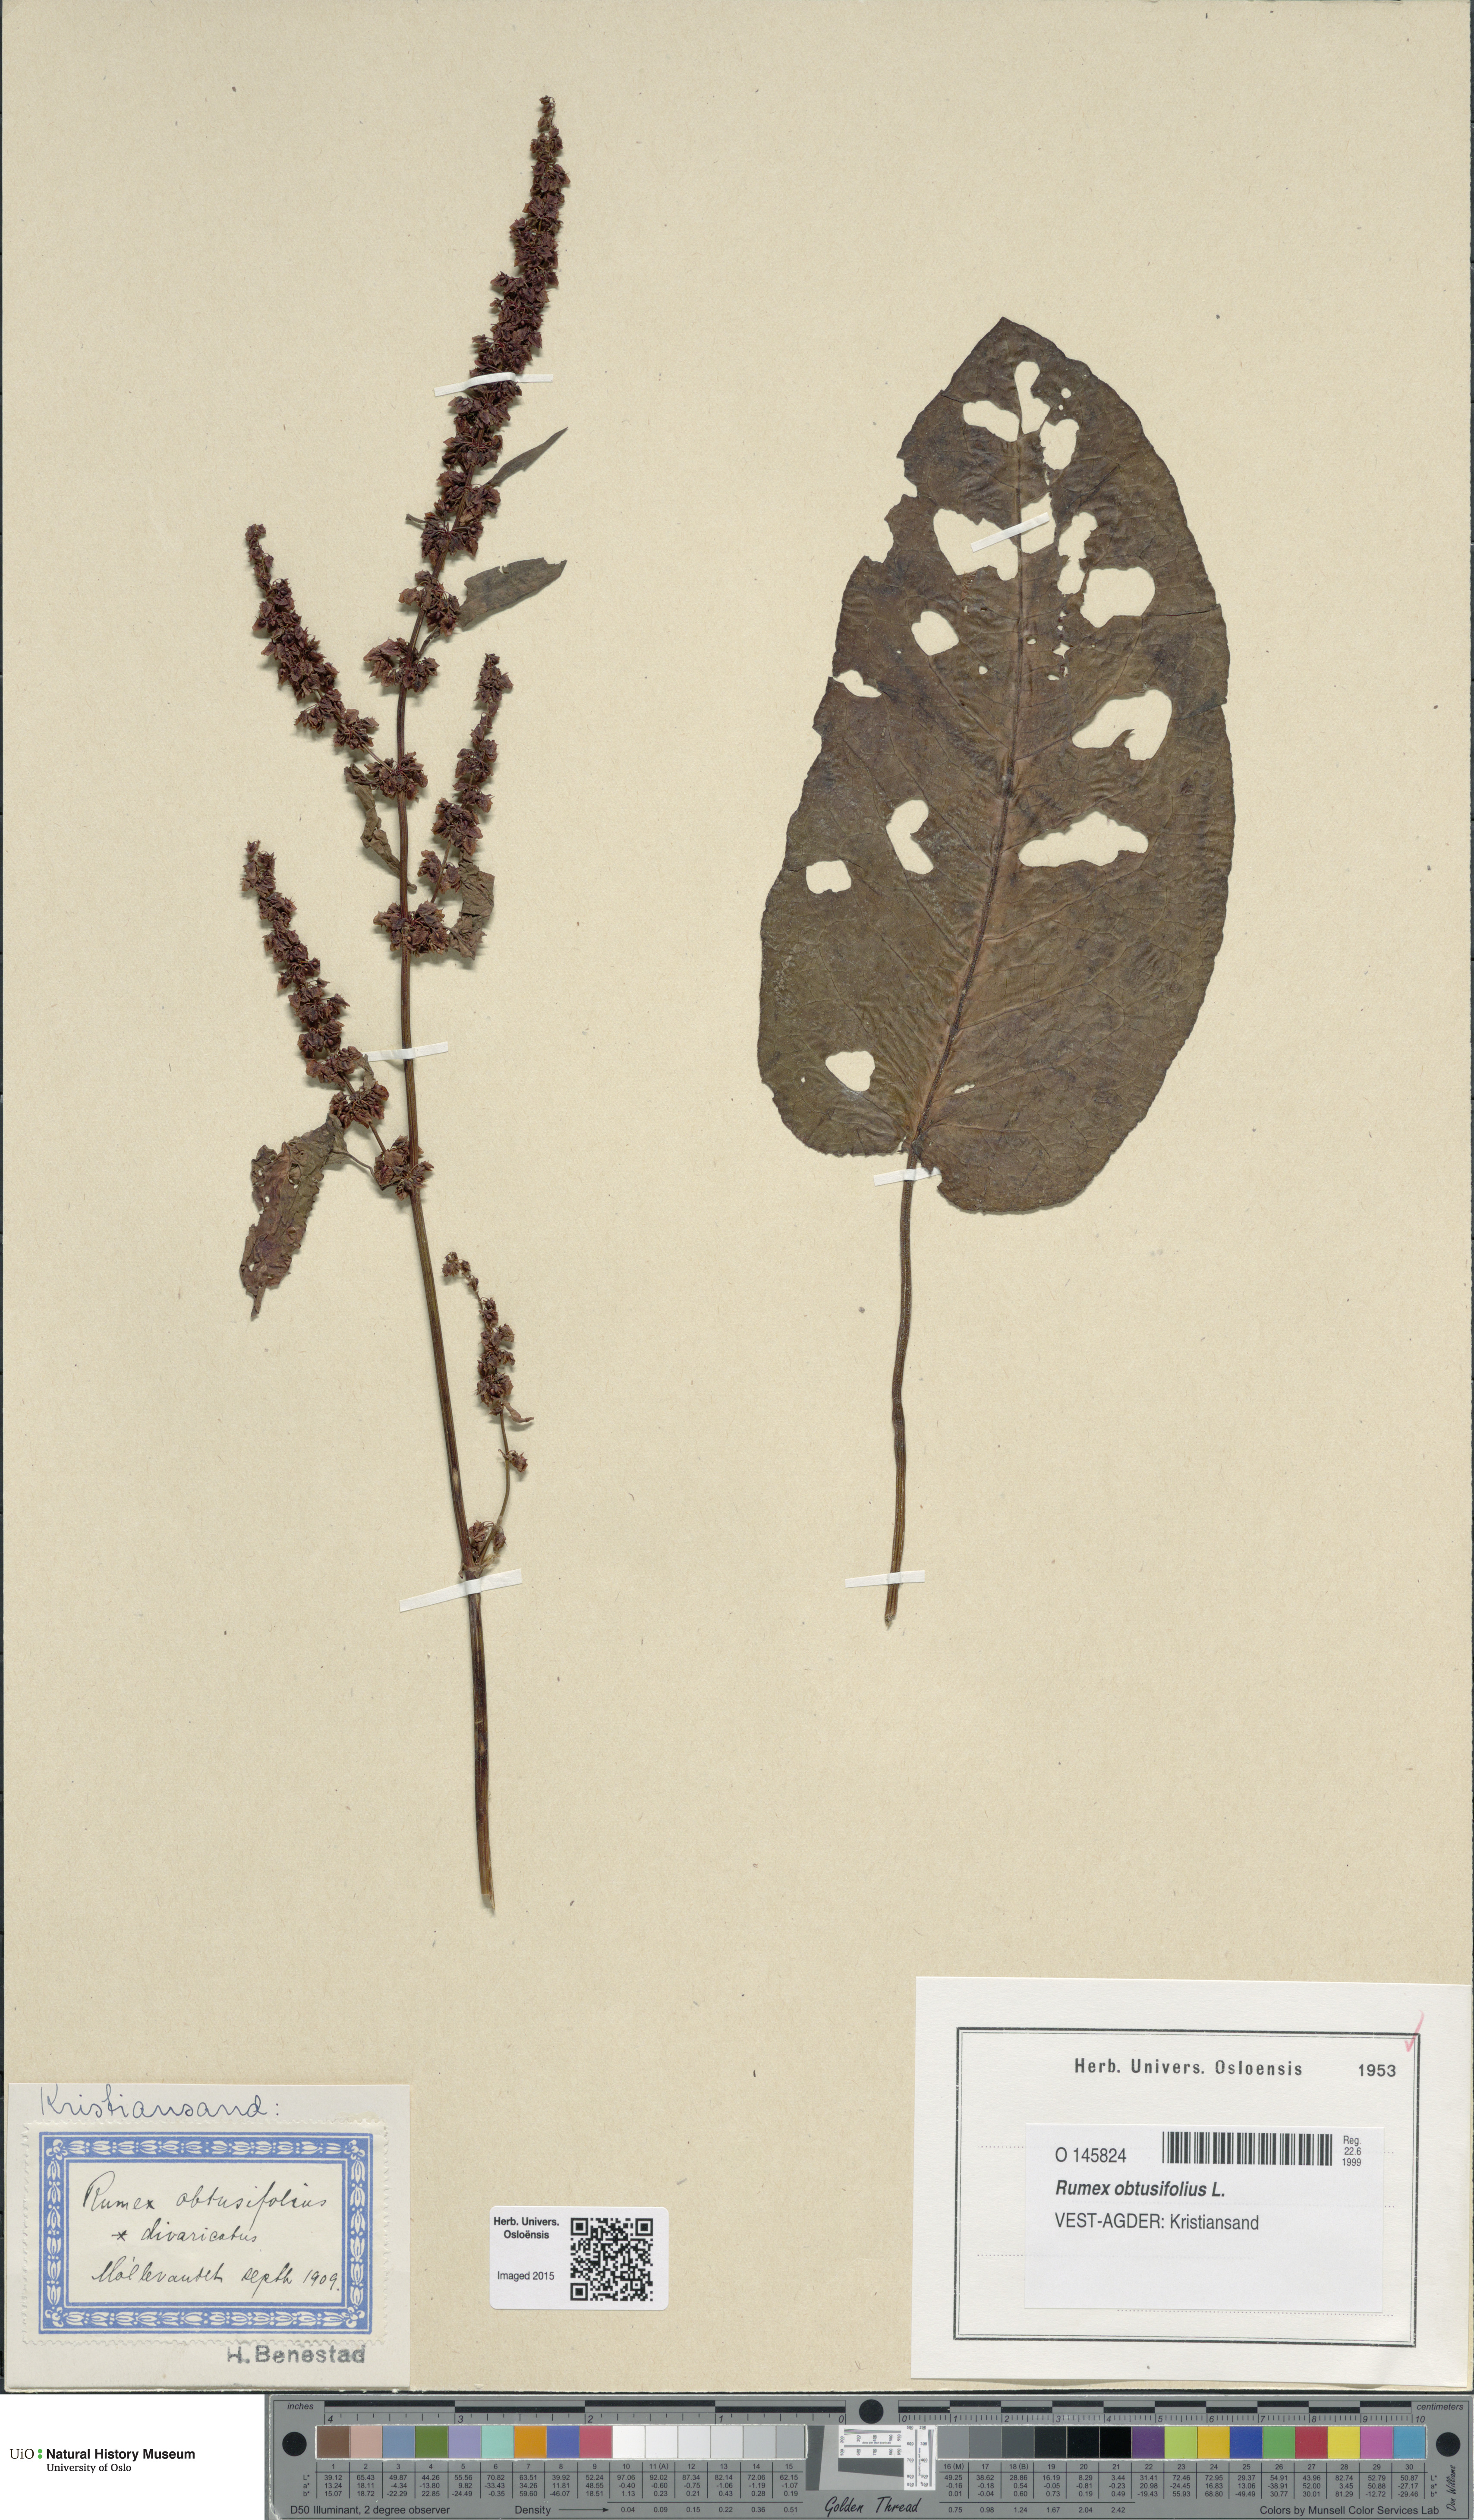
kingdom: Plantae
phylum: Tracheophyta
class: Magnoliopsida
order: Caryophyllales
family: Polygonaceae
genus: Rumex
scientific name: Rumex obtusifolius
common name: Bitter dock
